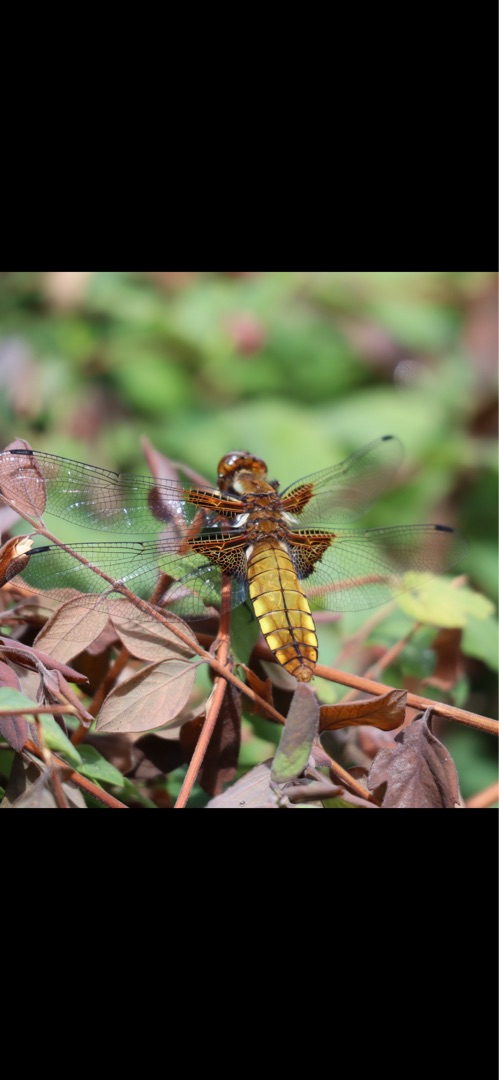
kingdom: Animalia
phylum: Arthropoda
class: Insecta
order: Odonata
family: Libellulidae
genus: Libellula
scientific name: Libellula depressa
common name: Blå libel
